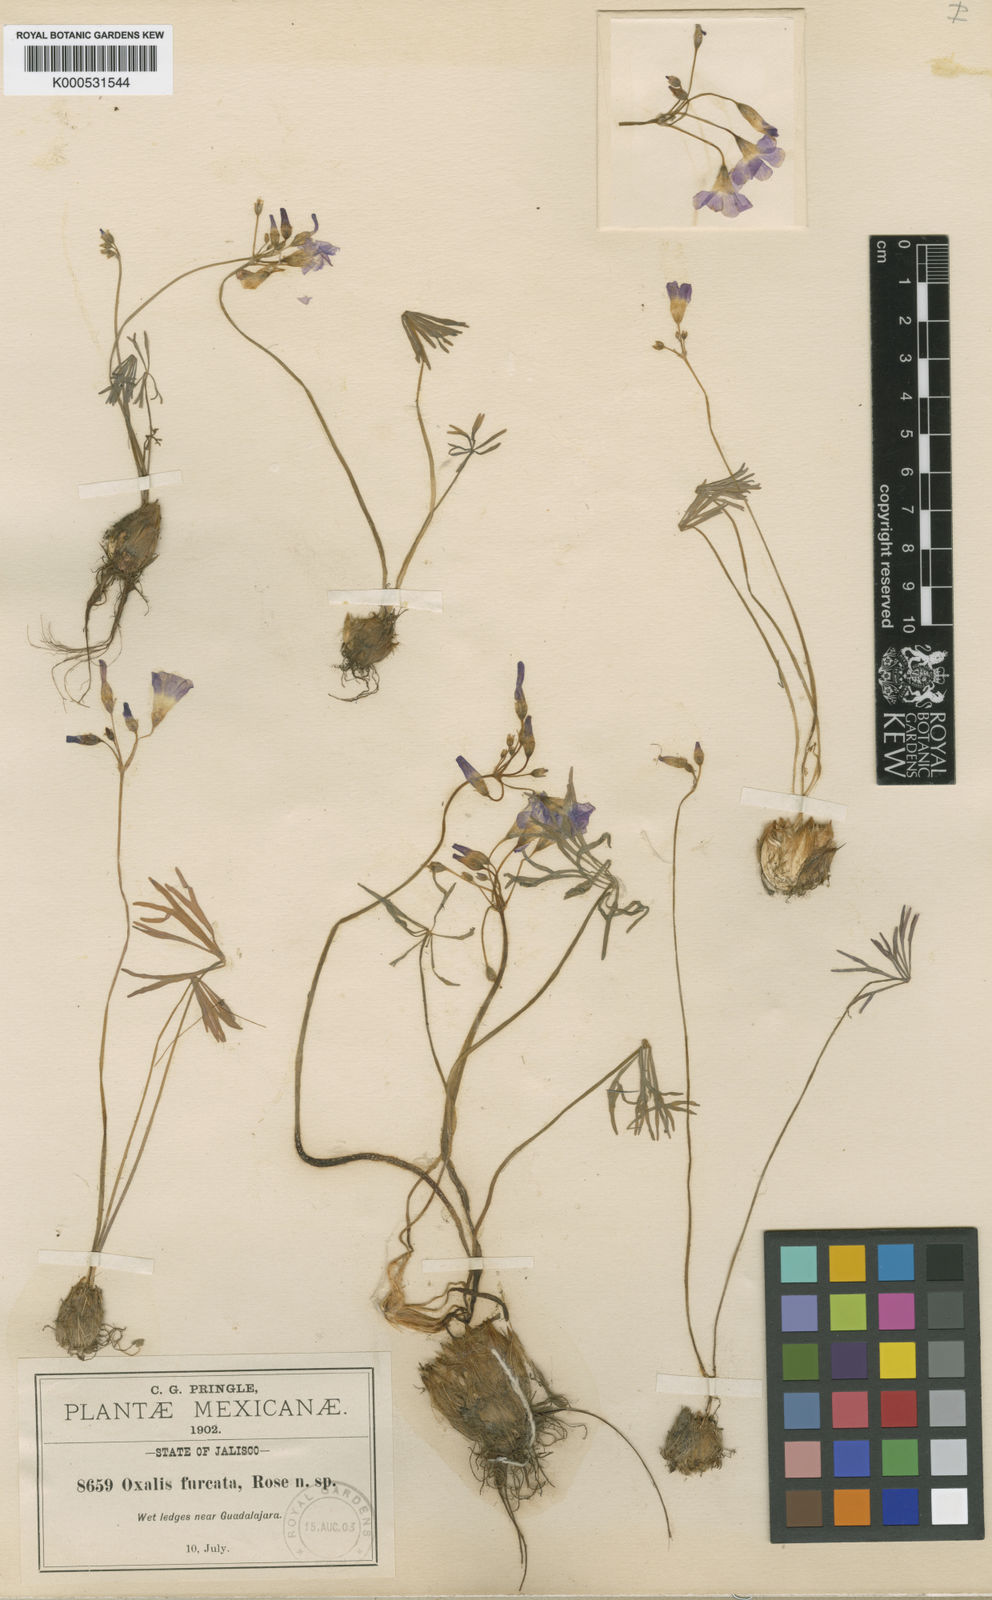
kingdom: Plantae
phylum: Tracheophyta
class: Magnoliopsida
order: Oxalidales
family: Oxalidaceae
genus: Oxalis
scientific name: Oxalis
